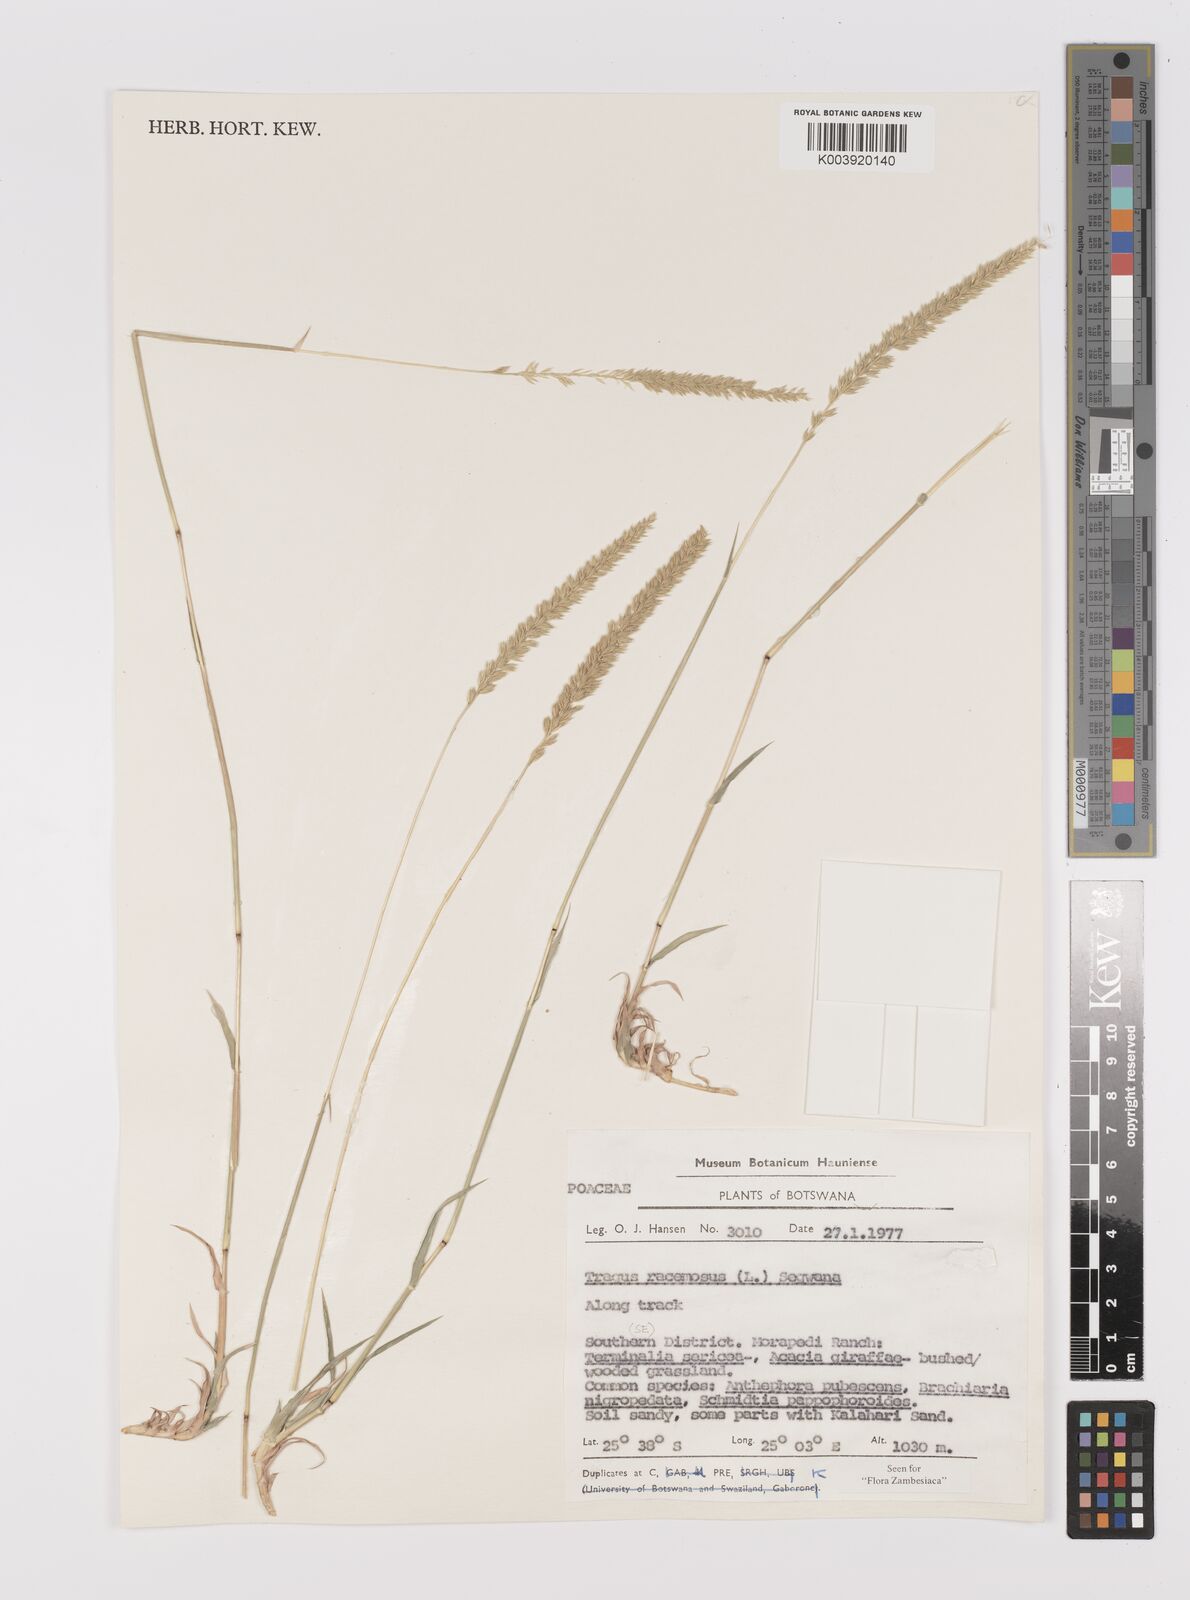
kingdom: Plantae
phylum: Tracheophyta
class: Liliopsida
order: Poales
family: Poaceae
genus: Tragus
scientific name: Tragus racemosus
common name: European bur-grass
